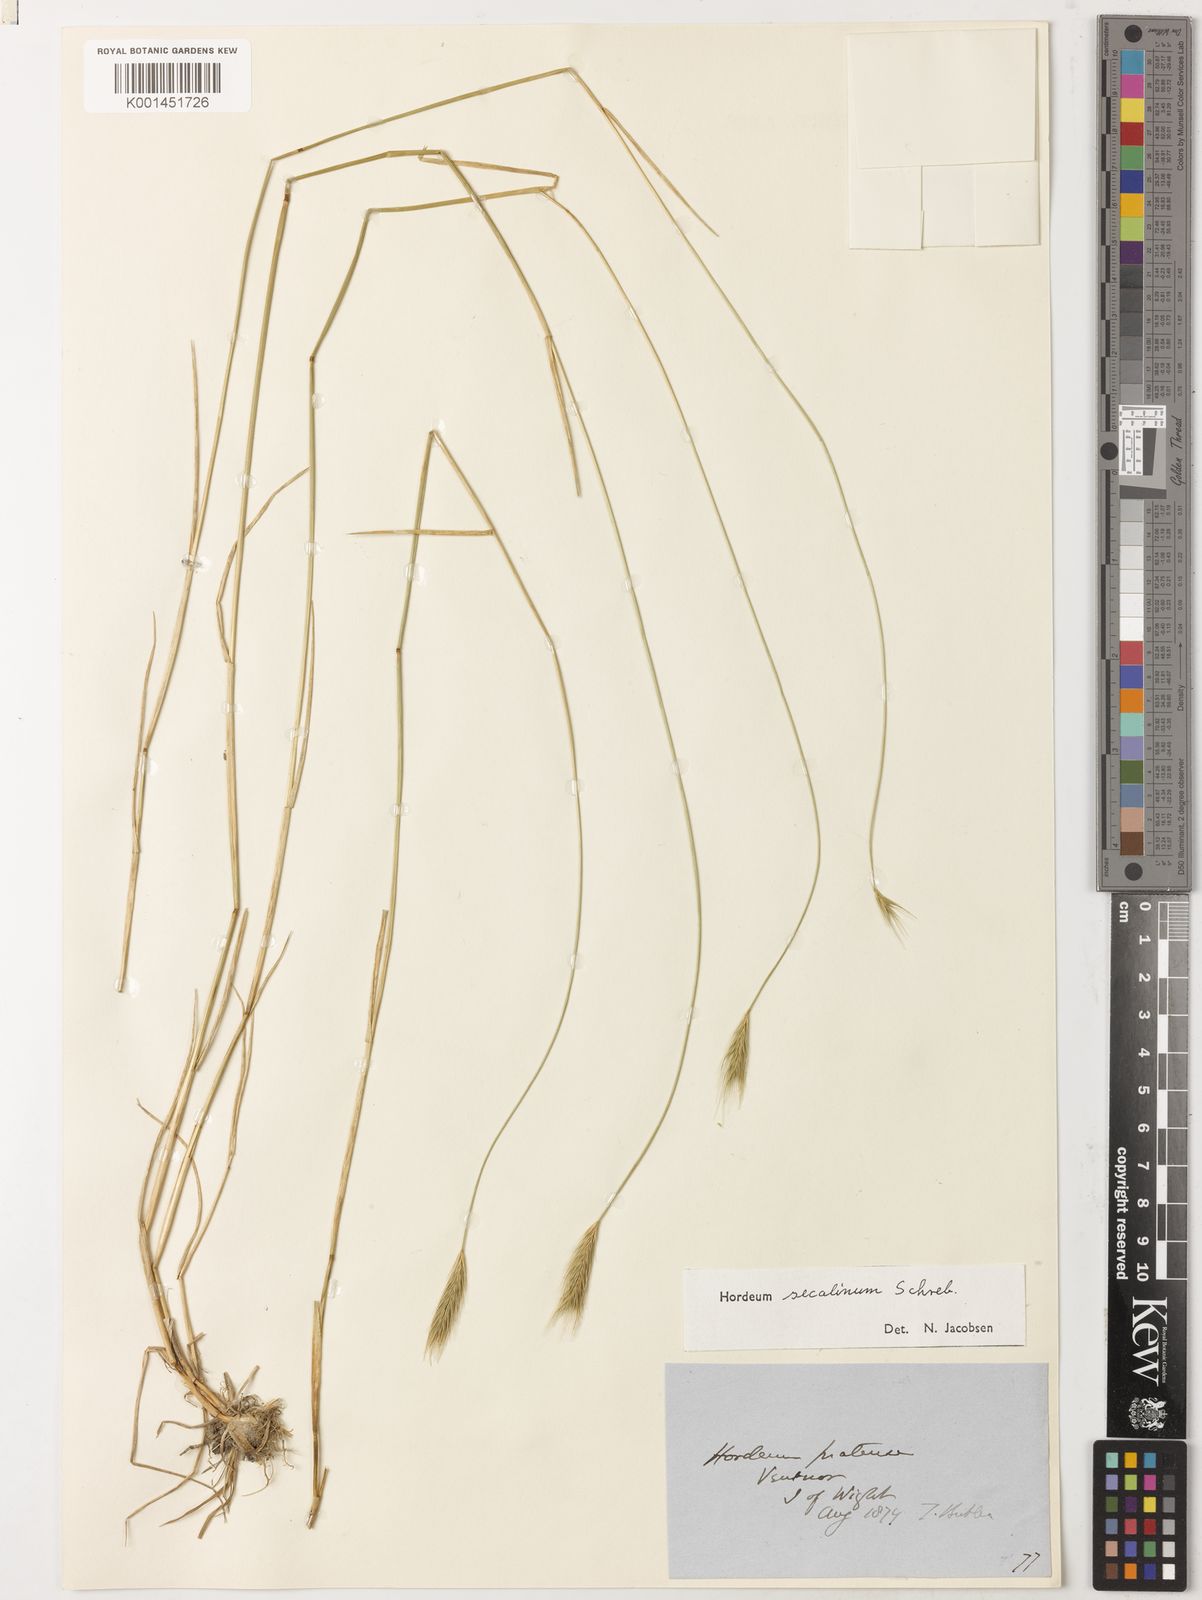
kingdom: Plantae
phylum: Tracheophyta
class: Liliopsida
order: Poales
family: Poaceae
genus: Hordeum
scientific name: Hordeum secalinum
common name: Meadow barley
